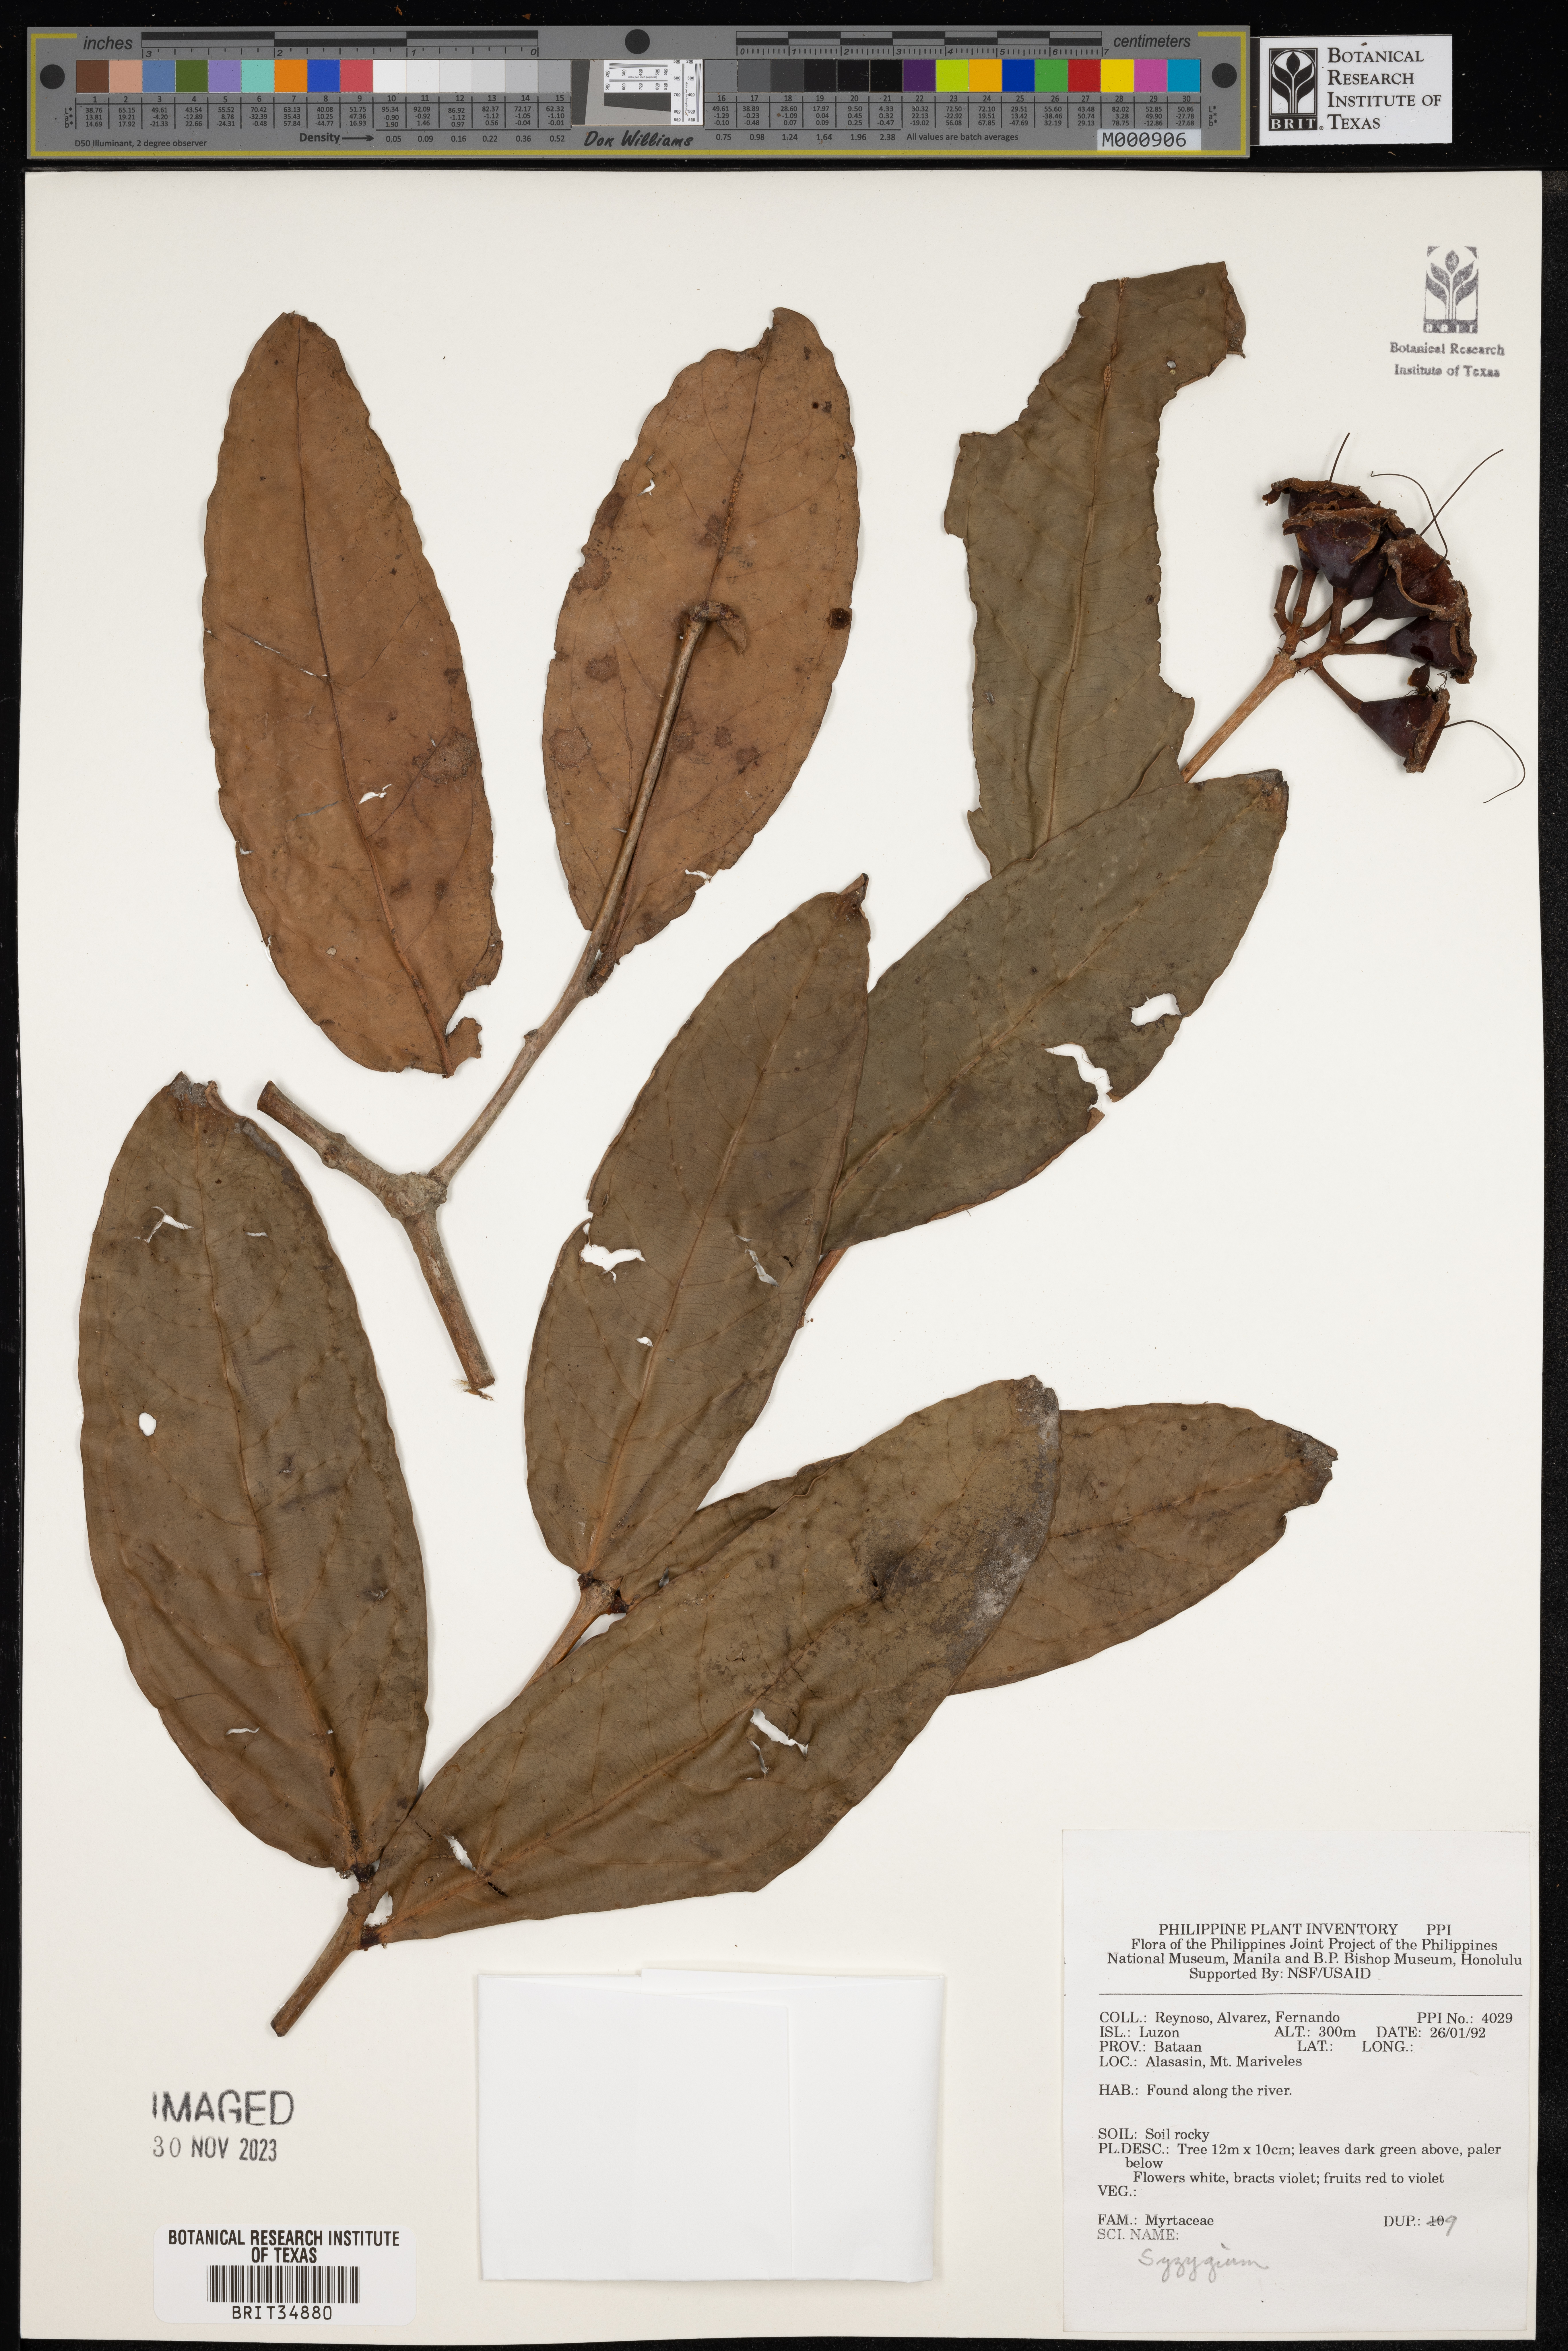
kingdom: Plantae
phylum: Tracheophyta
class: Magnoliopsida
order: Myrtales
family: Myrtaceae
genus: Syzygium
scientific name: Syzygium
